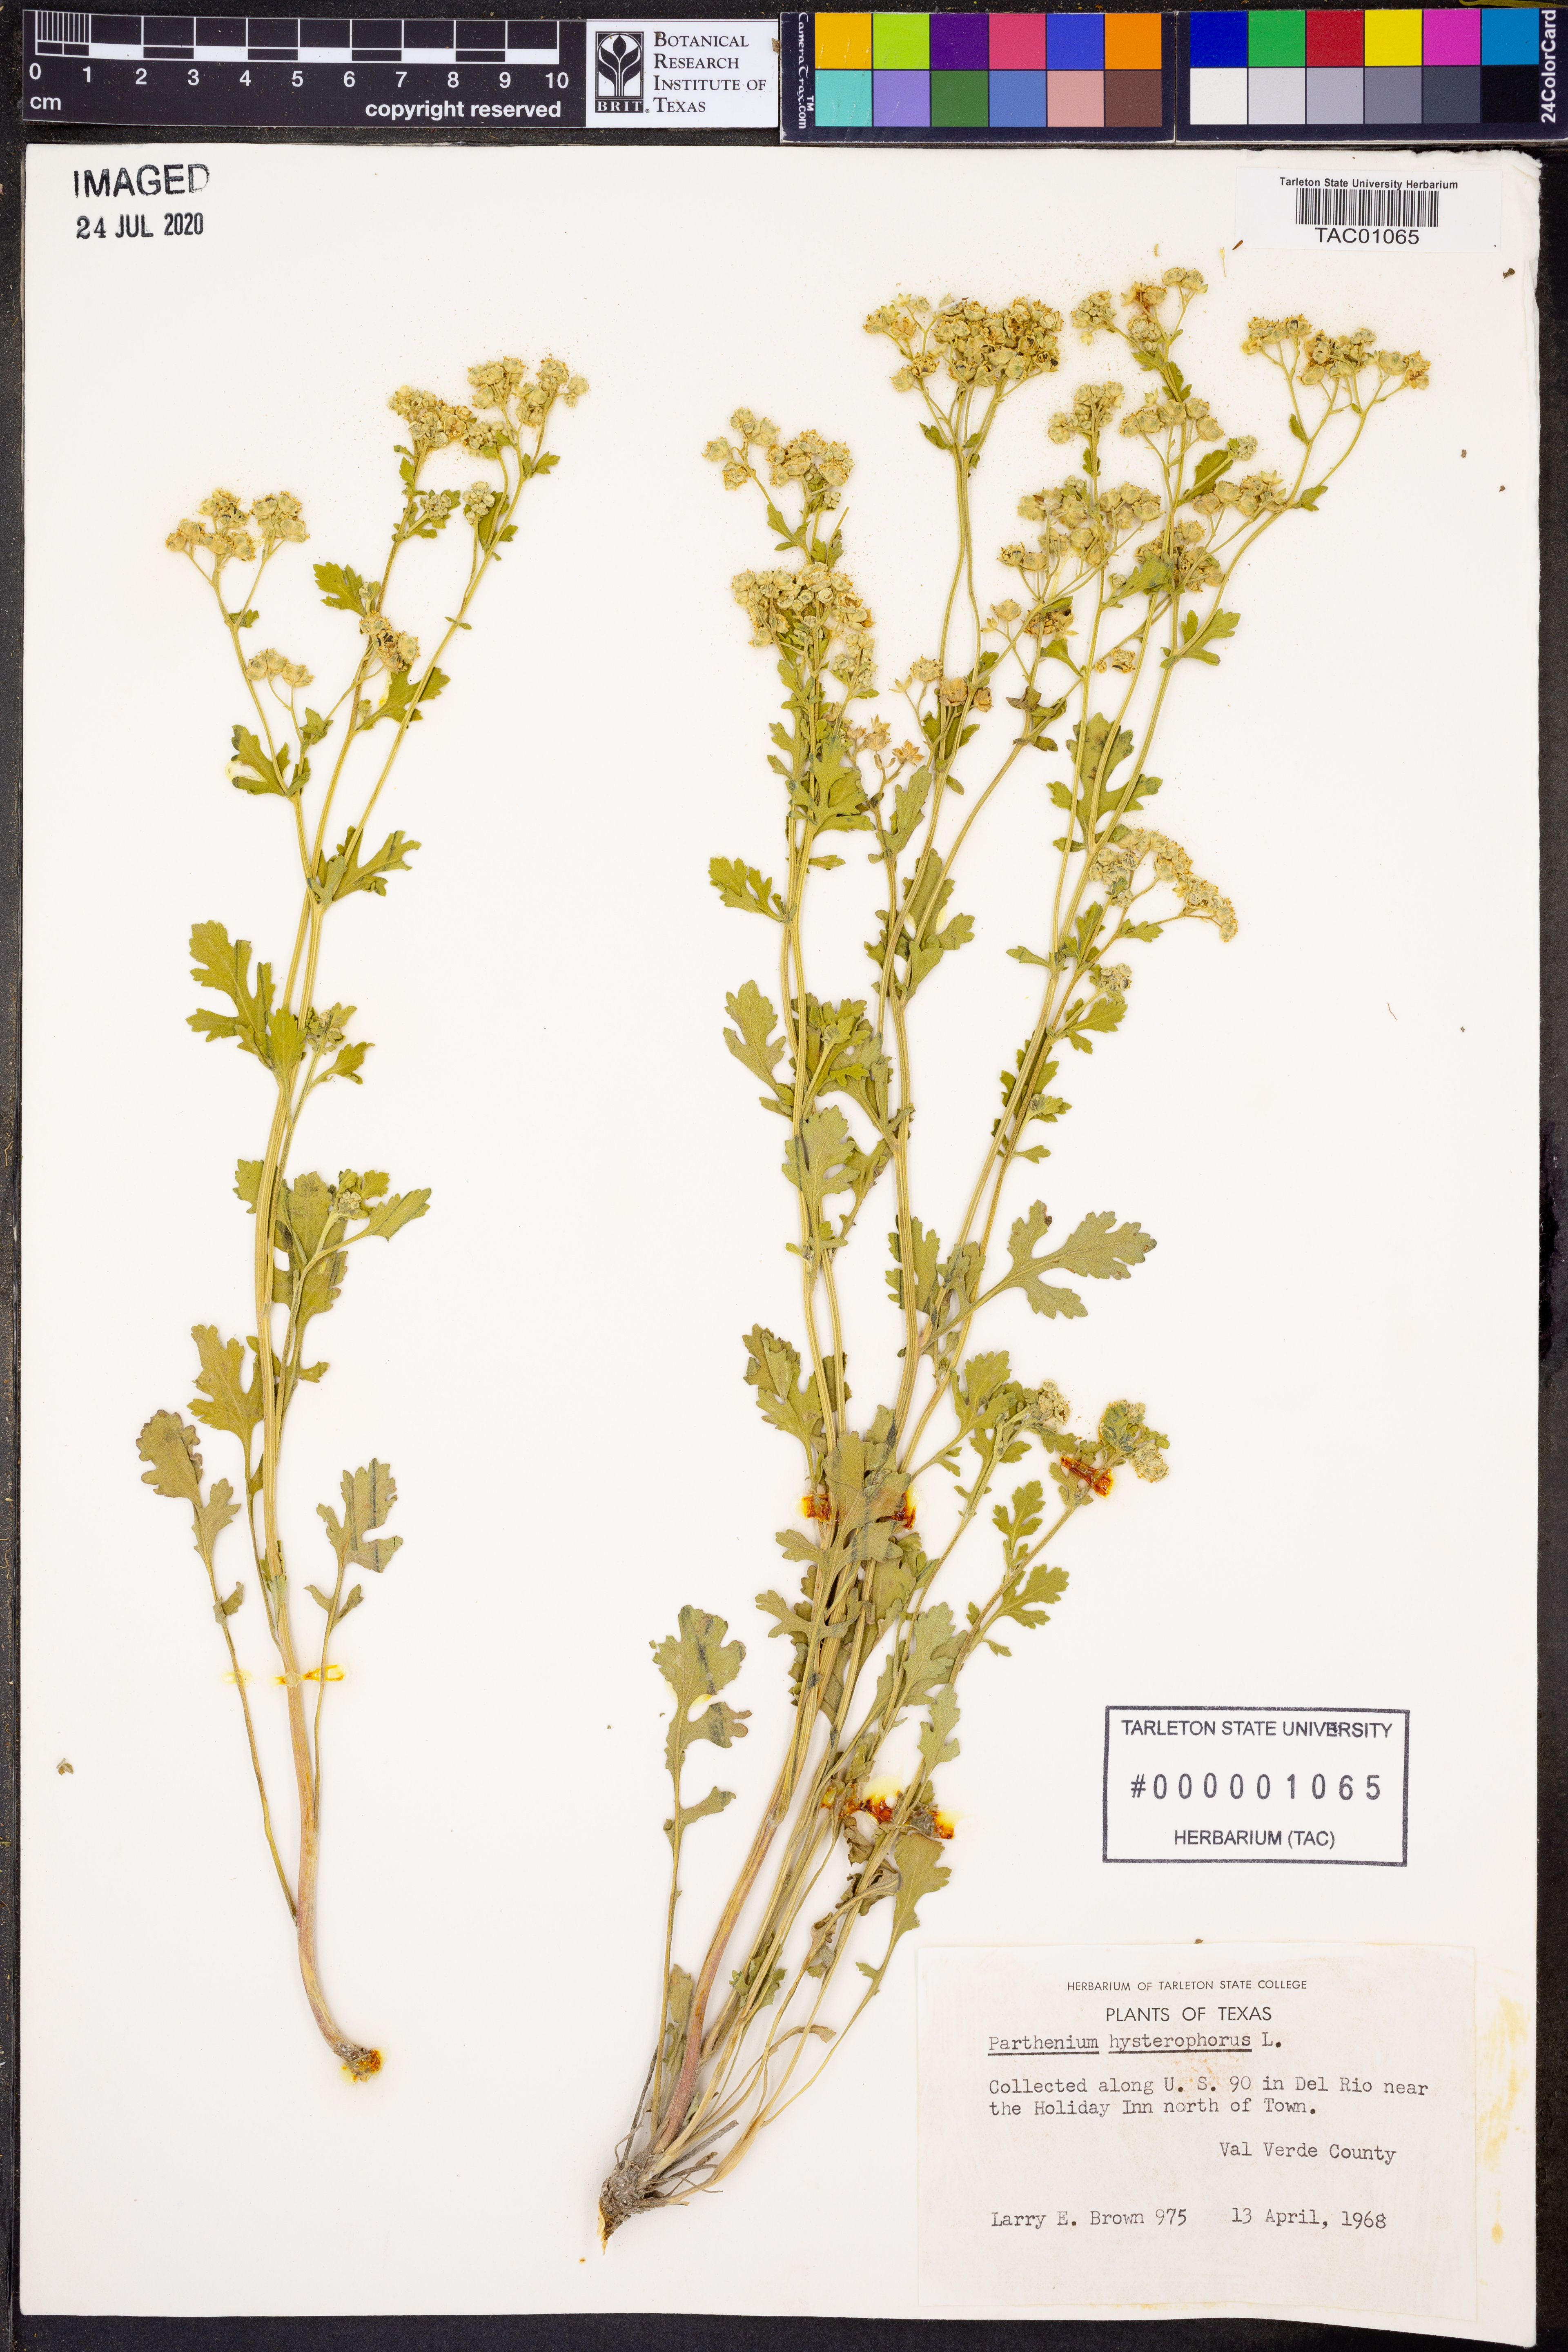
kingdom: Plantae
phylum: Tracheophyta
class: Magnoliopsida
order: Asterales
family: Asteraceae
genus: Parthenium
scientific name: Parthenium hysterophorus
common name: Santa maria feverfew
